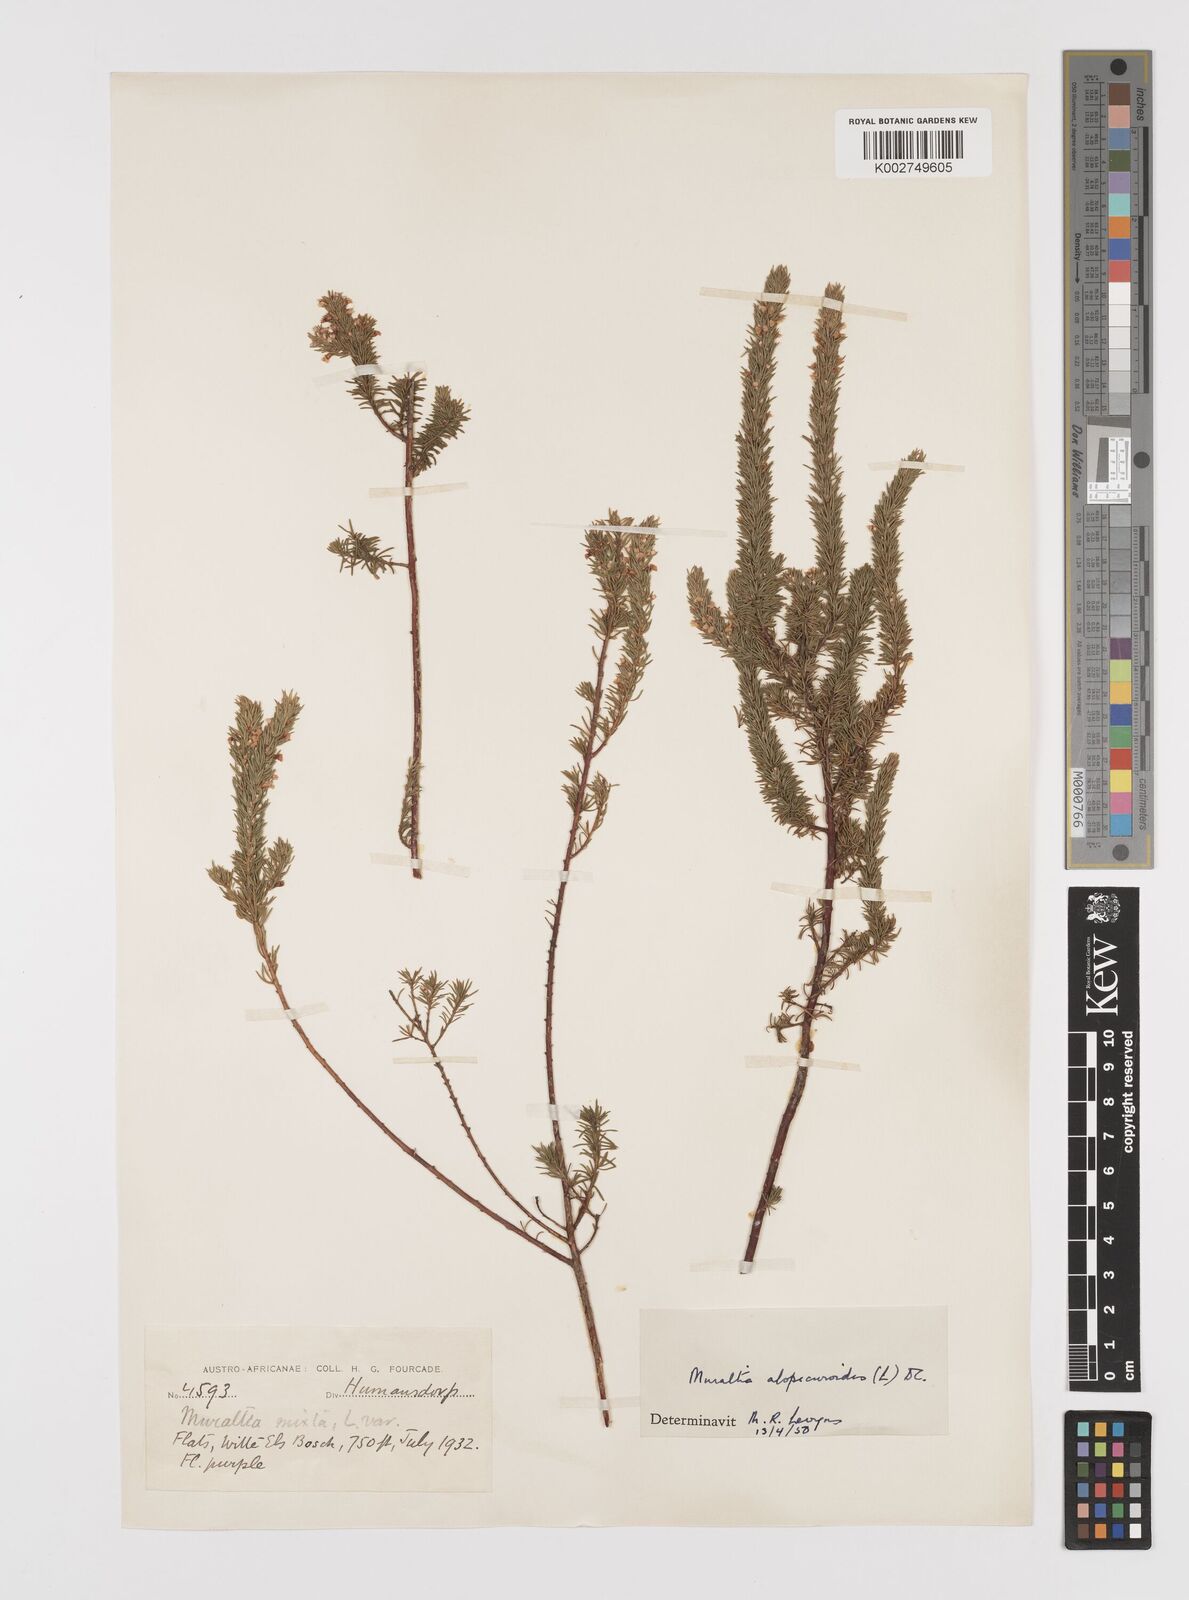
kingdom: Plantae
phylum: Tracheophyta
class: Magnoliopsida
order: Fabales
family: Polygalaceae
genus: Muraltia
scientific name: Muraltia alopecuroides
